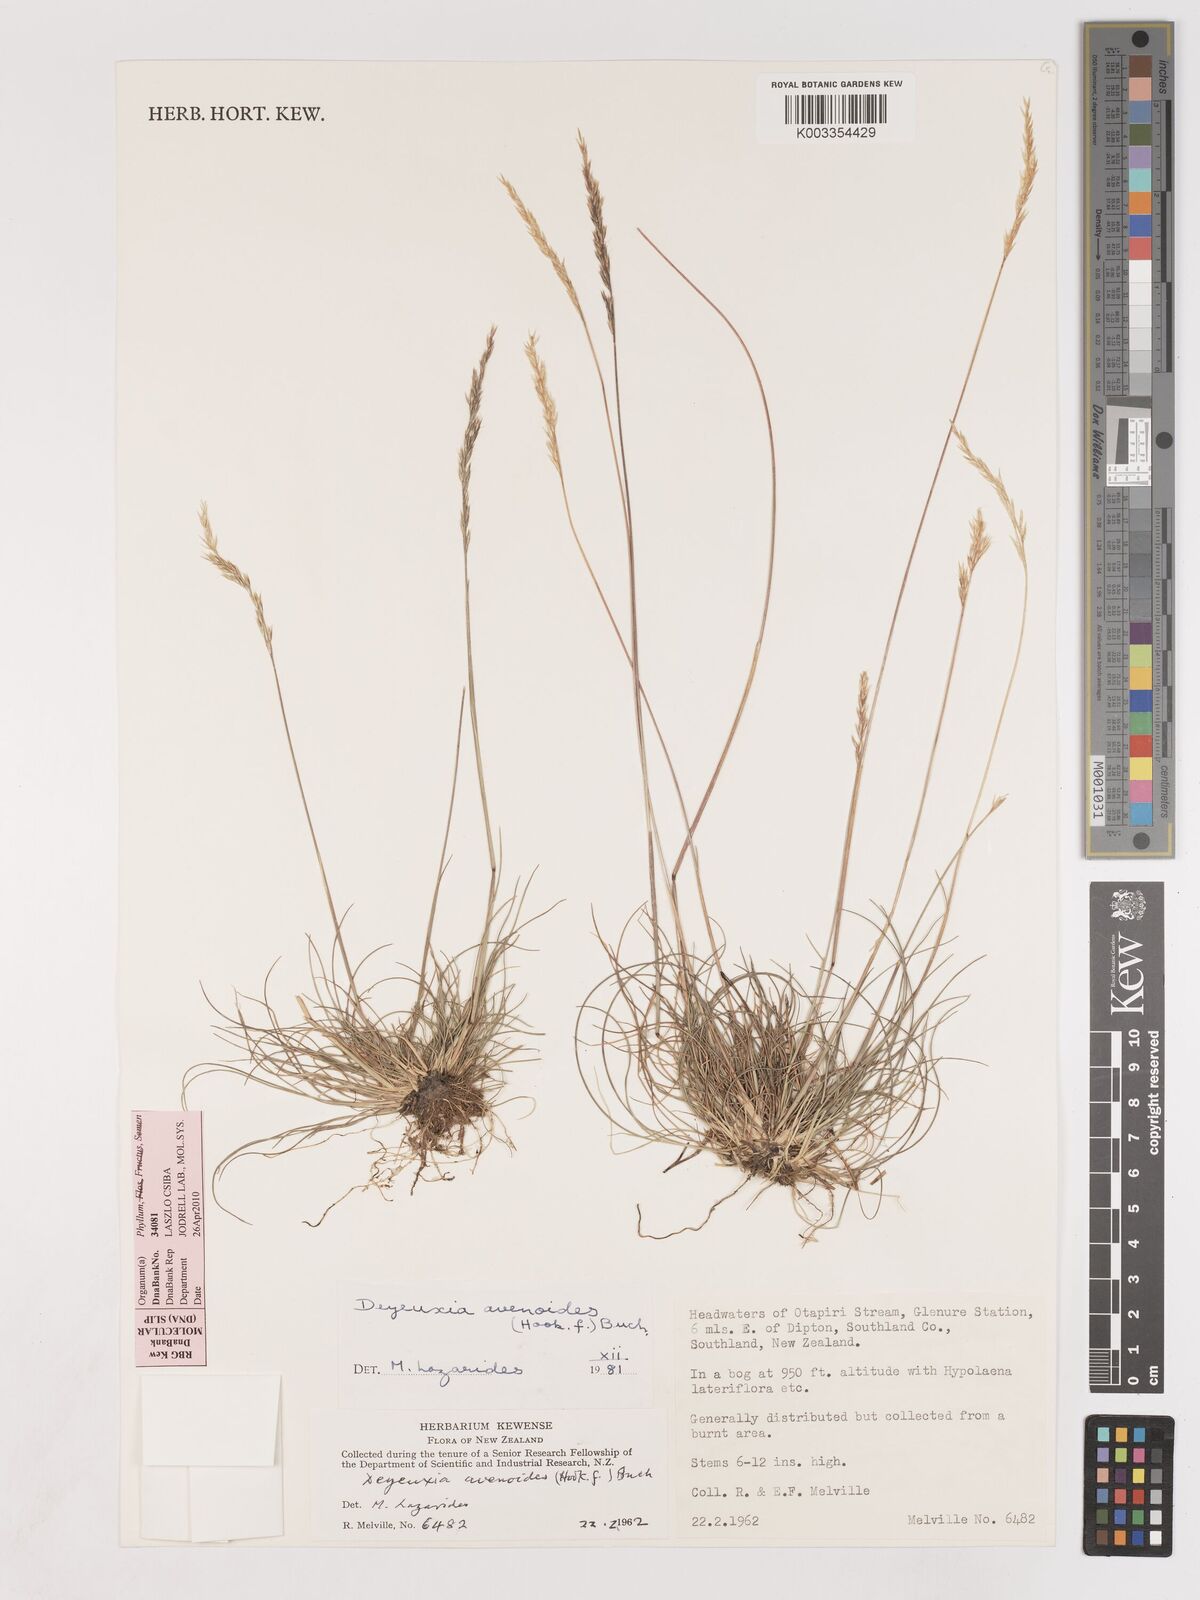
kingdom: Plantae
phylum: Tracheophyta
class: Liliopsida
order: Poales
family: Poaceae
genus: Calamagrostis
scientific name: Calamagrostis avenoides
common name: Mountain oat grass
